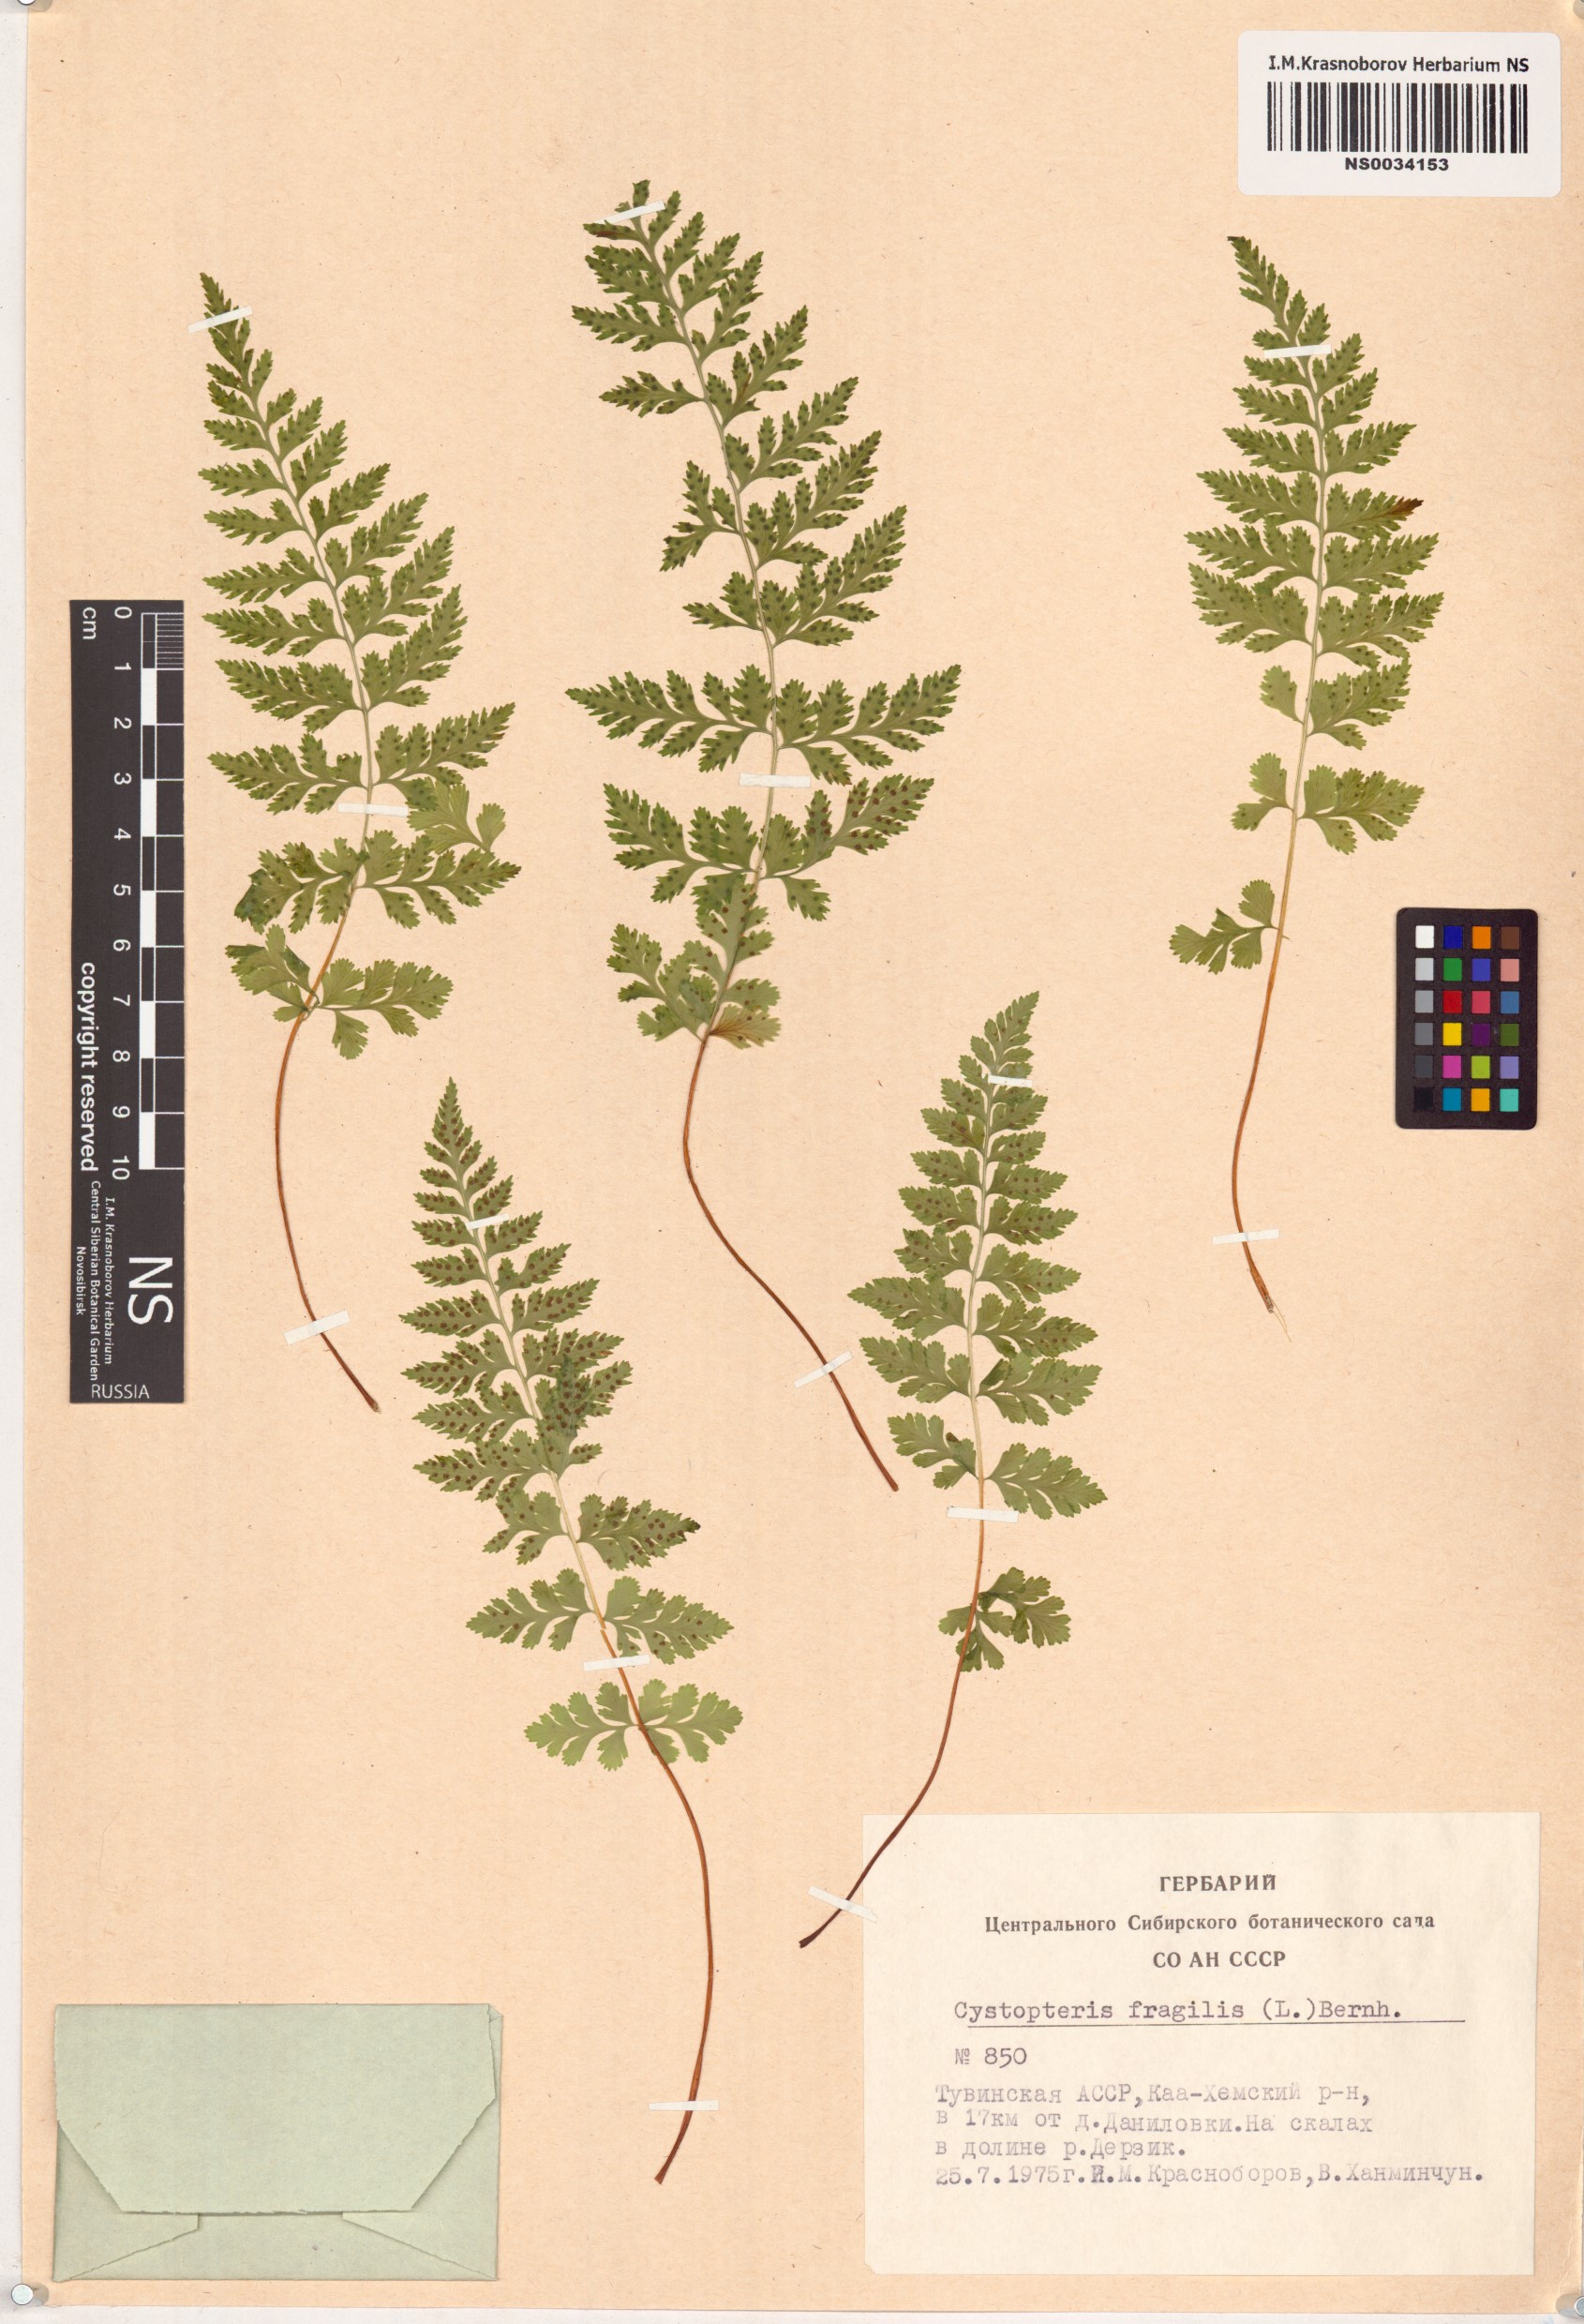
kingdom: Plantae
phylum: Tracheophyta
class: Polypodiopsida
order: Polypodiales
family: Cystopteridaceae
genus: Cystopteris
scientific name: Cystopteris fragilis
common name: Brittle bladder fern
